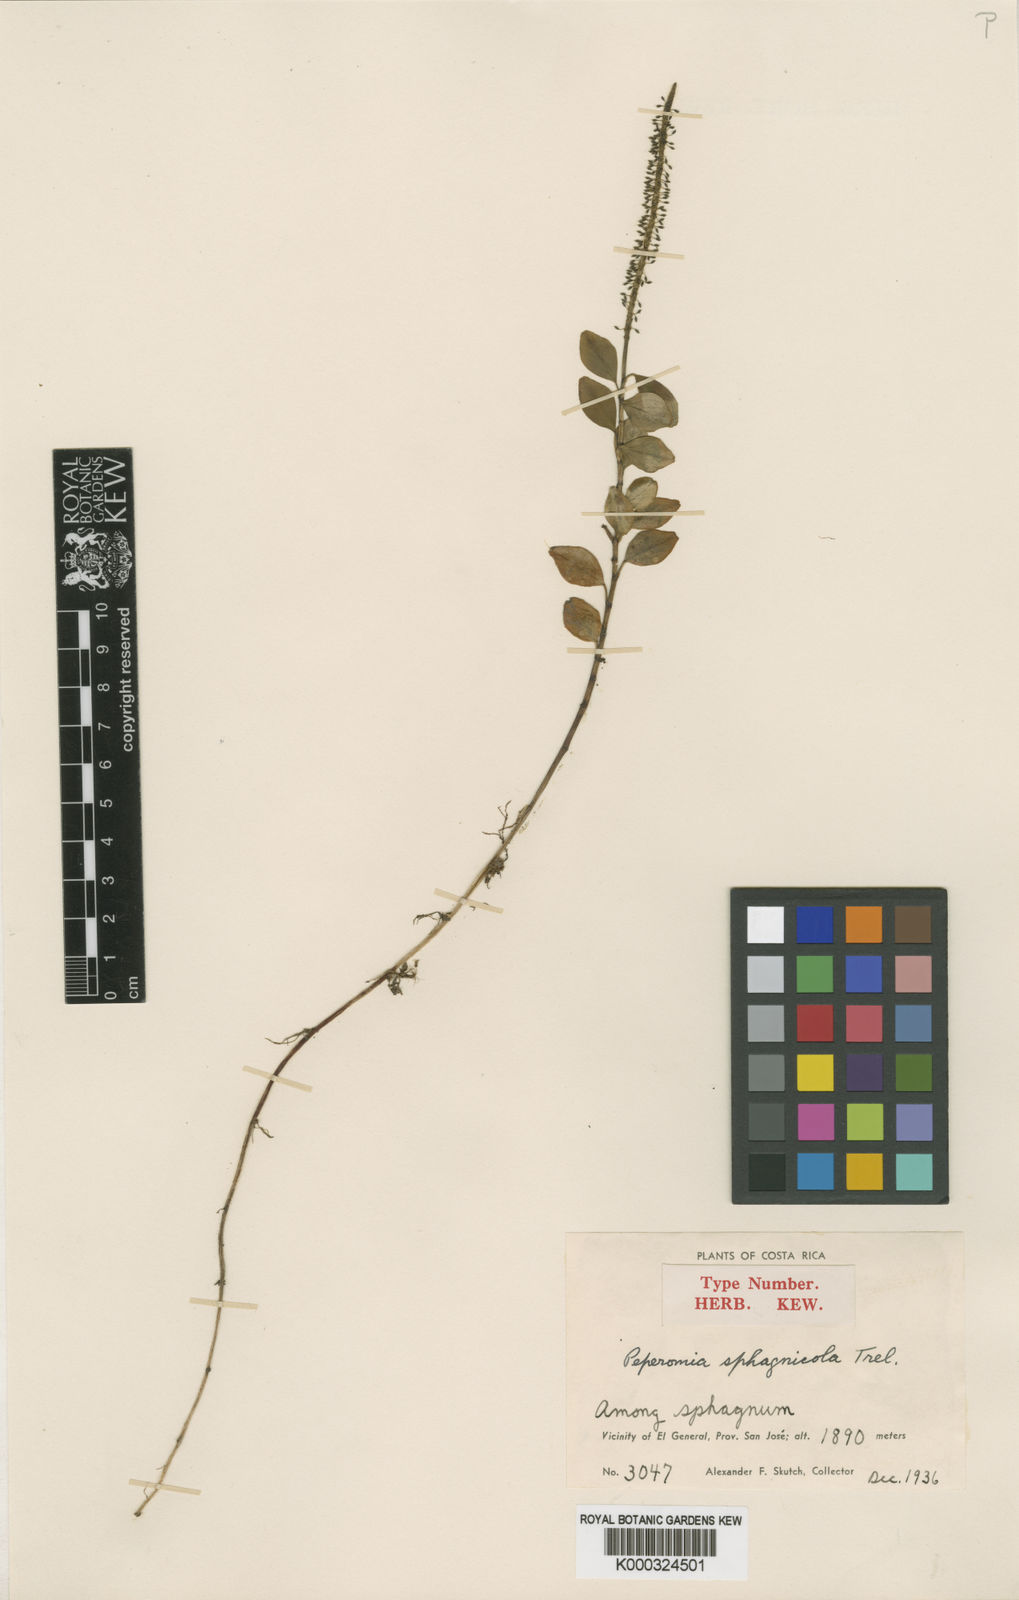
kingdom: Plantae
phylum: Tracheophyta
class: Magnoliopsida
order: Piperales
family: Piperaceae
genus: Peperomia
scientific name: Peperomia
